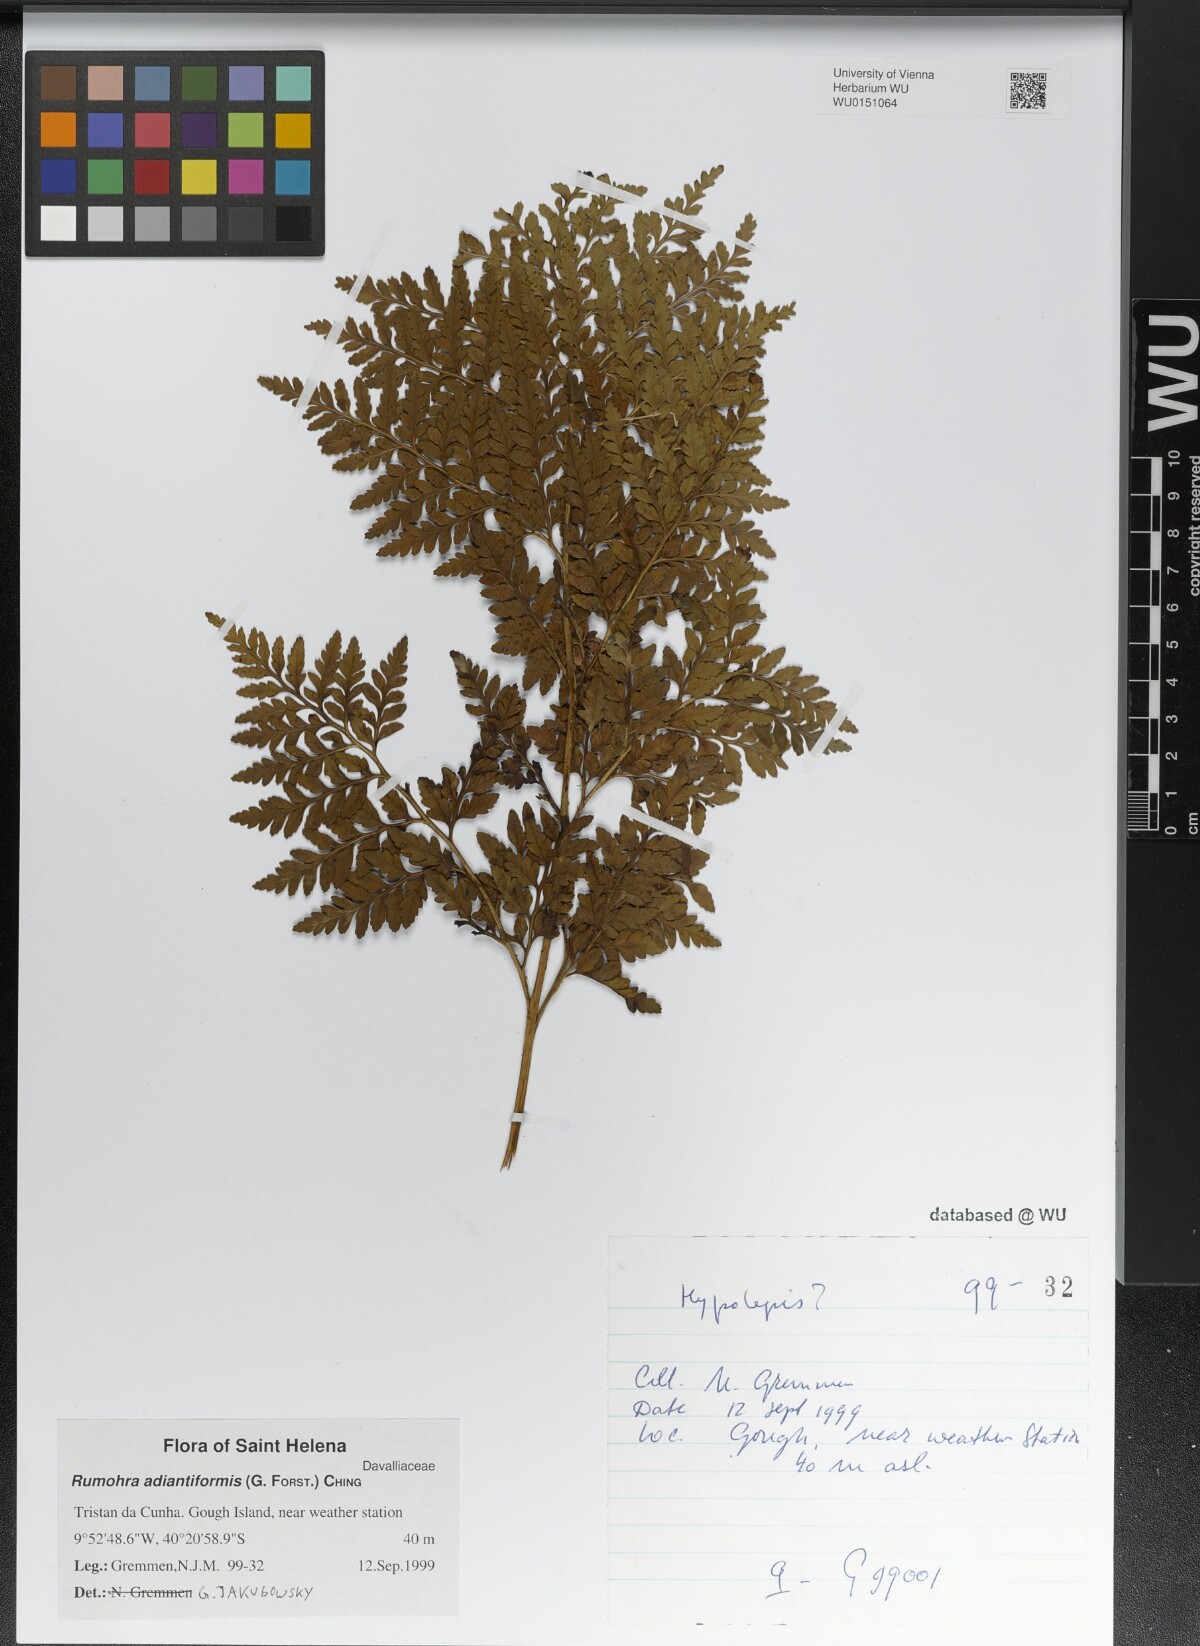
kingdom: Plantae
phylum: Tracheophyta
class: Polypodiopsida
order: Polypodiales
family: Dryopteridaceae
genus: Rumohra
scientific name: Rumohra adiantiformis
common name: Leather fern
